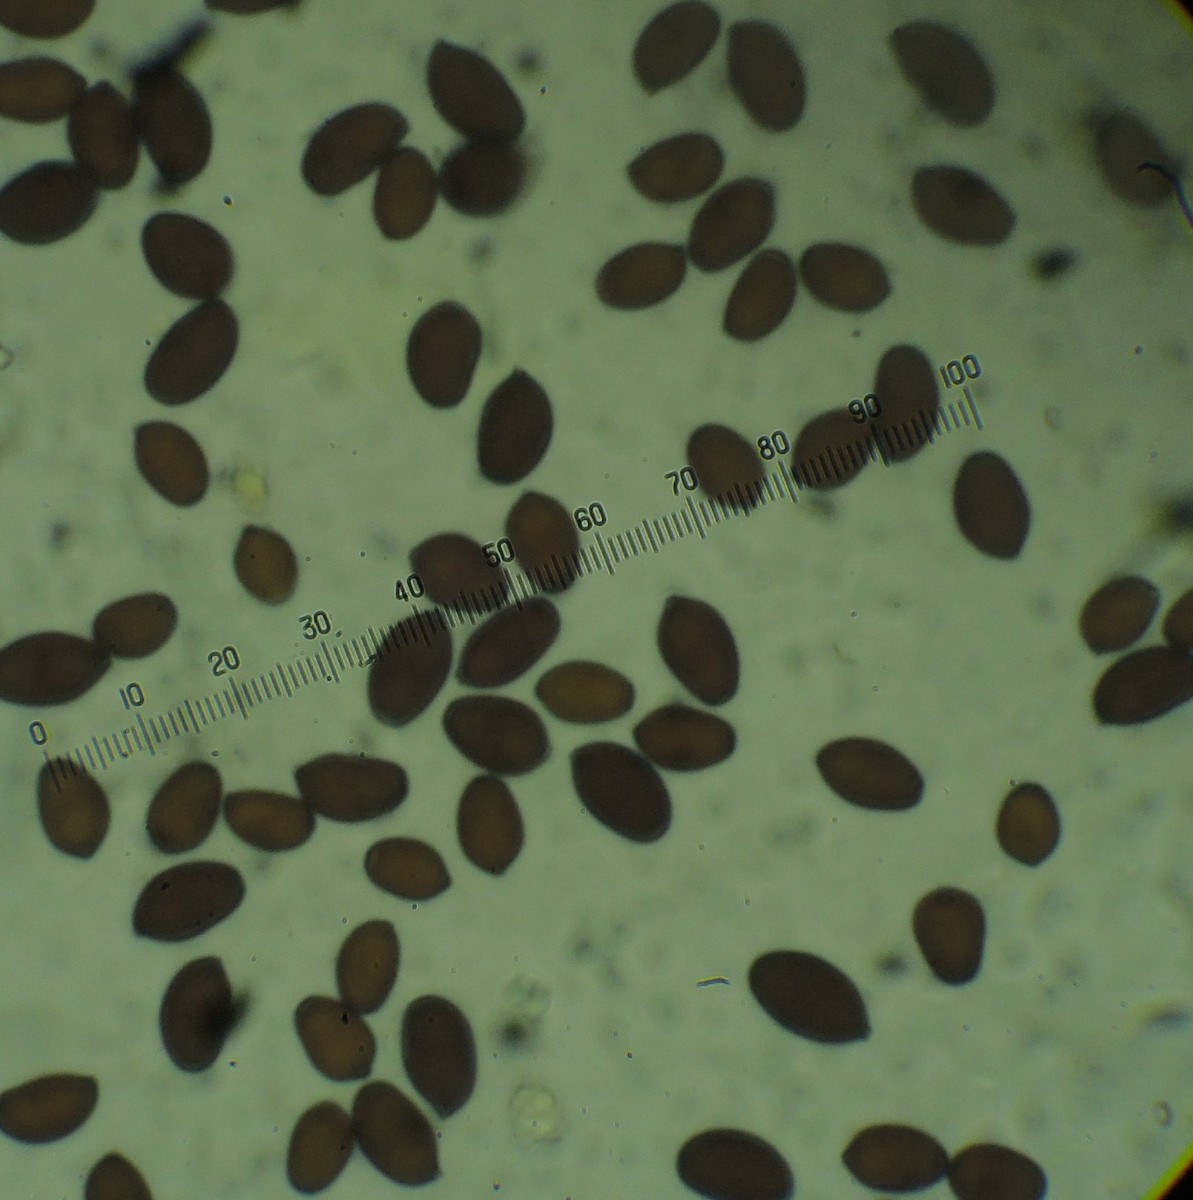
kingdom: Fungi
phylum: Basidiomycota
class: Agaricomycetes
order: Agaricales
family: Psathyrellaceae
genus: Coprinellus
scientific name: Coprinellus
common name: blækhat
